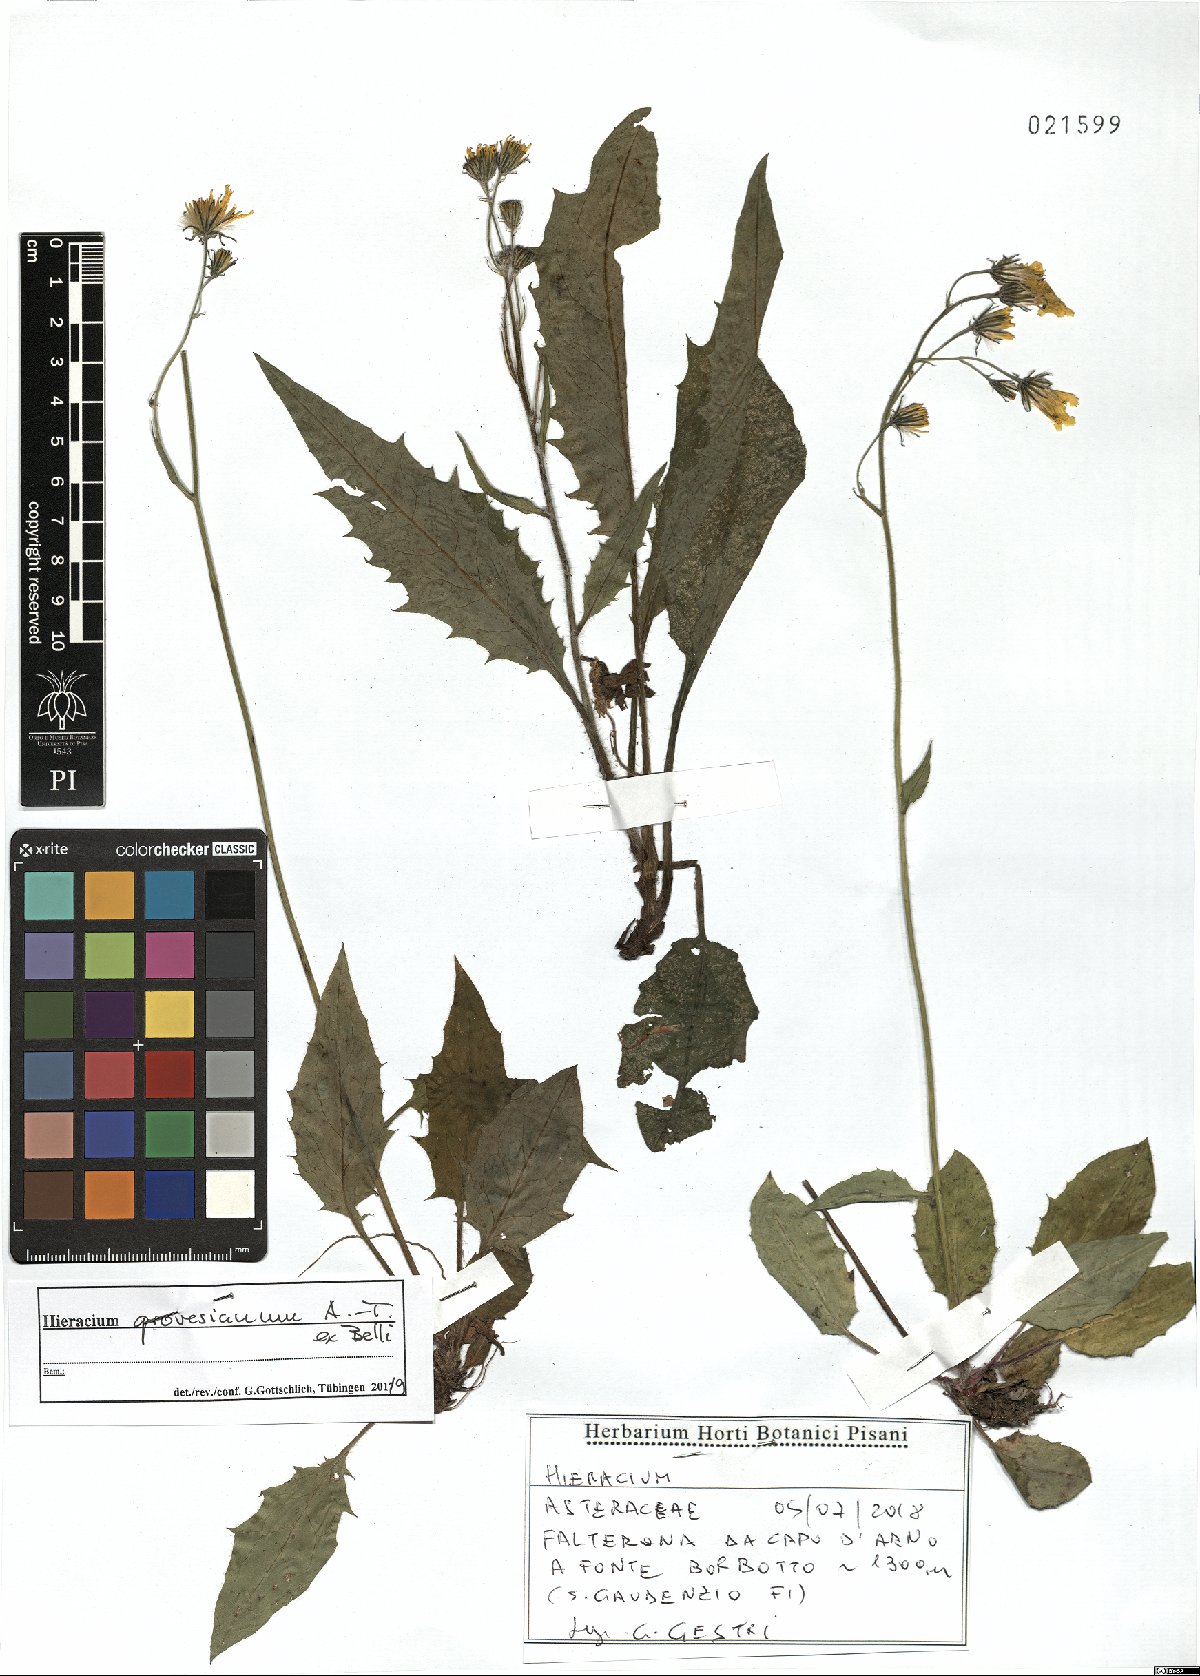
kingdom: Plantae
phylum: Tracheophyta
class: Magnoliopsida
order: Asterales
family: Asteraceae
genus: Hieracium
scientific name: Hieracium grovesianum
